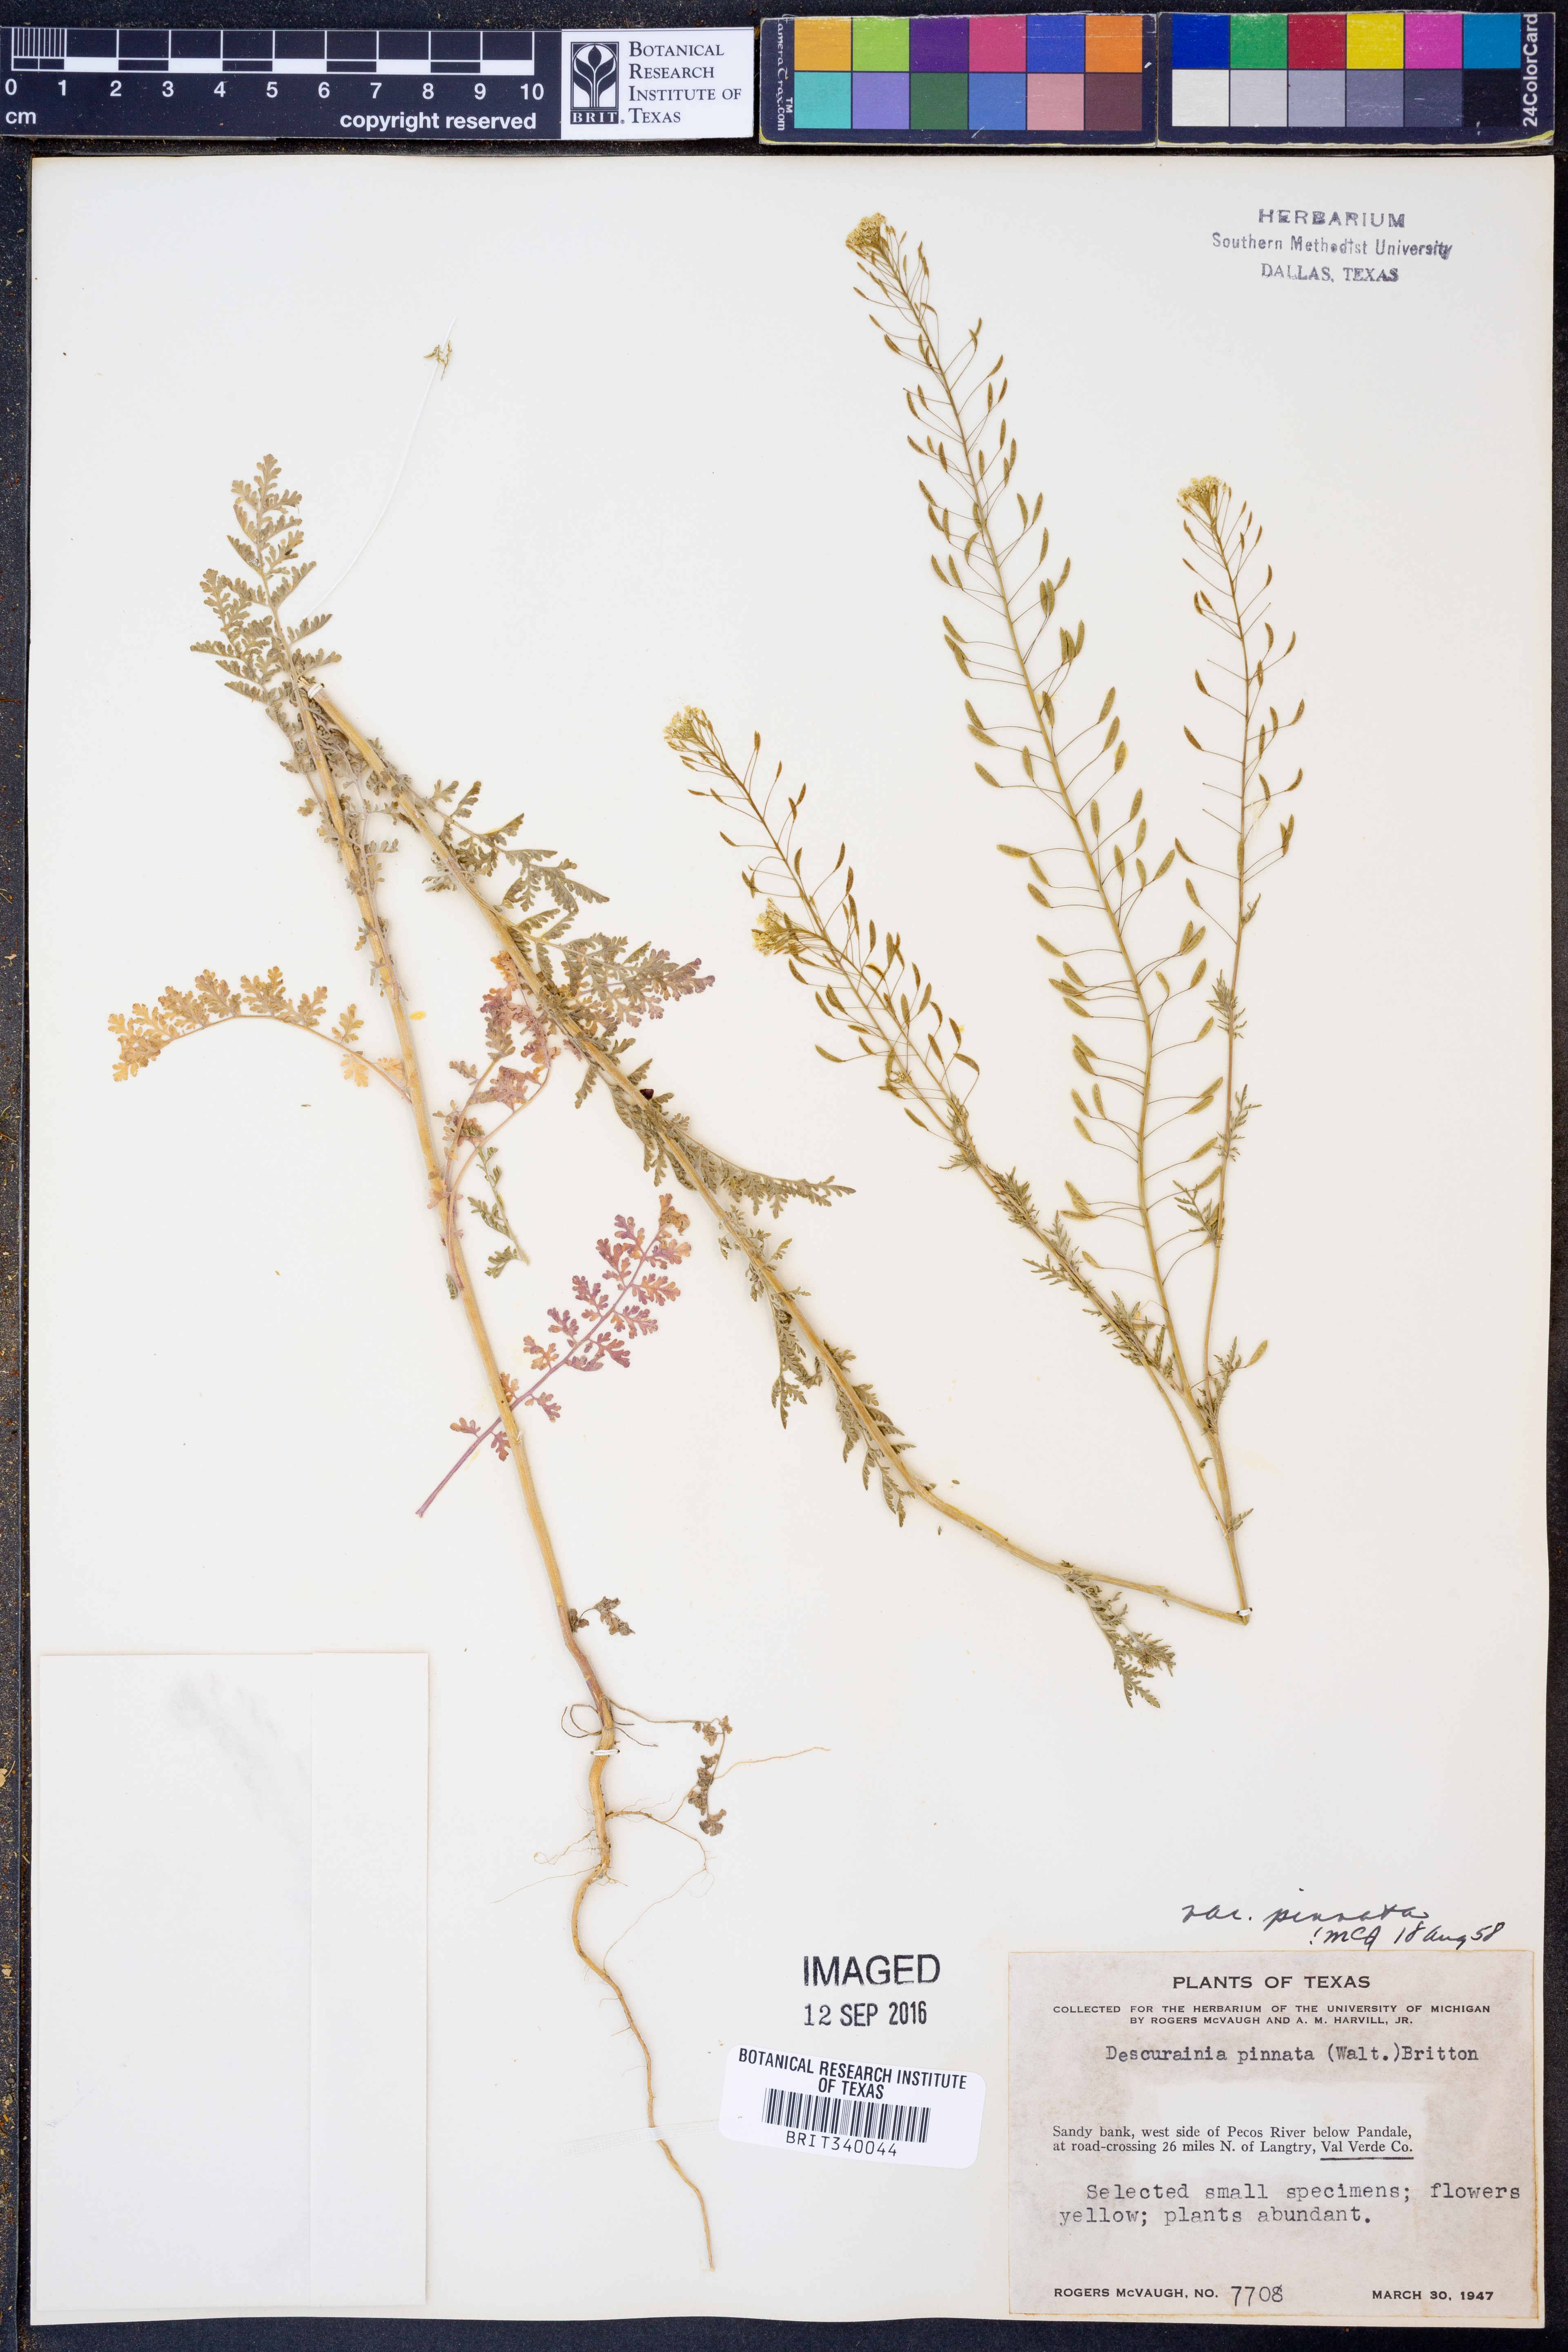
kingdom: Plantae
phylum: Tracheophyta
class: Magnoliopsida
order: Brassicales
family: Brassicaceae
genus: Descurainia
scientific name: Descurainia pinnata
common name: Western tansy mustard
